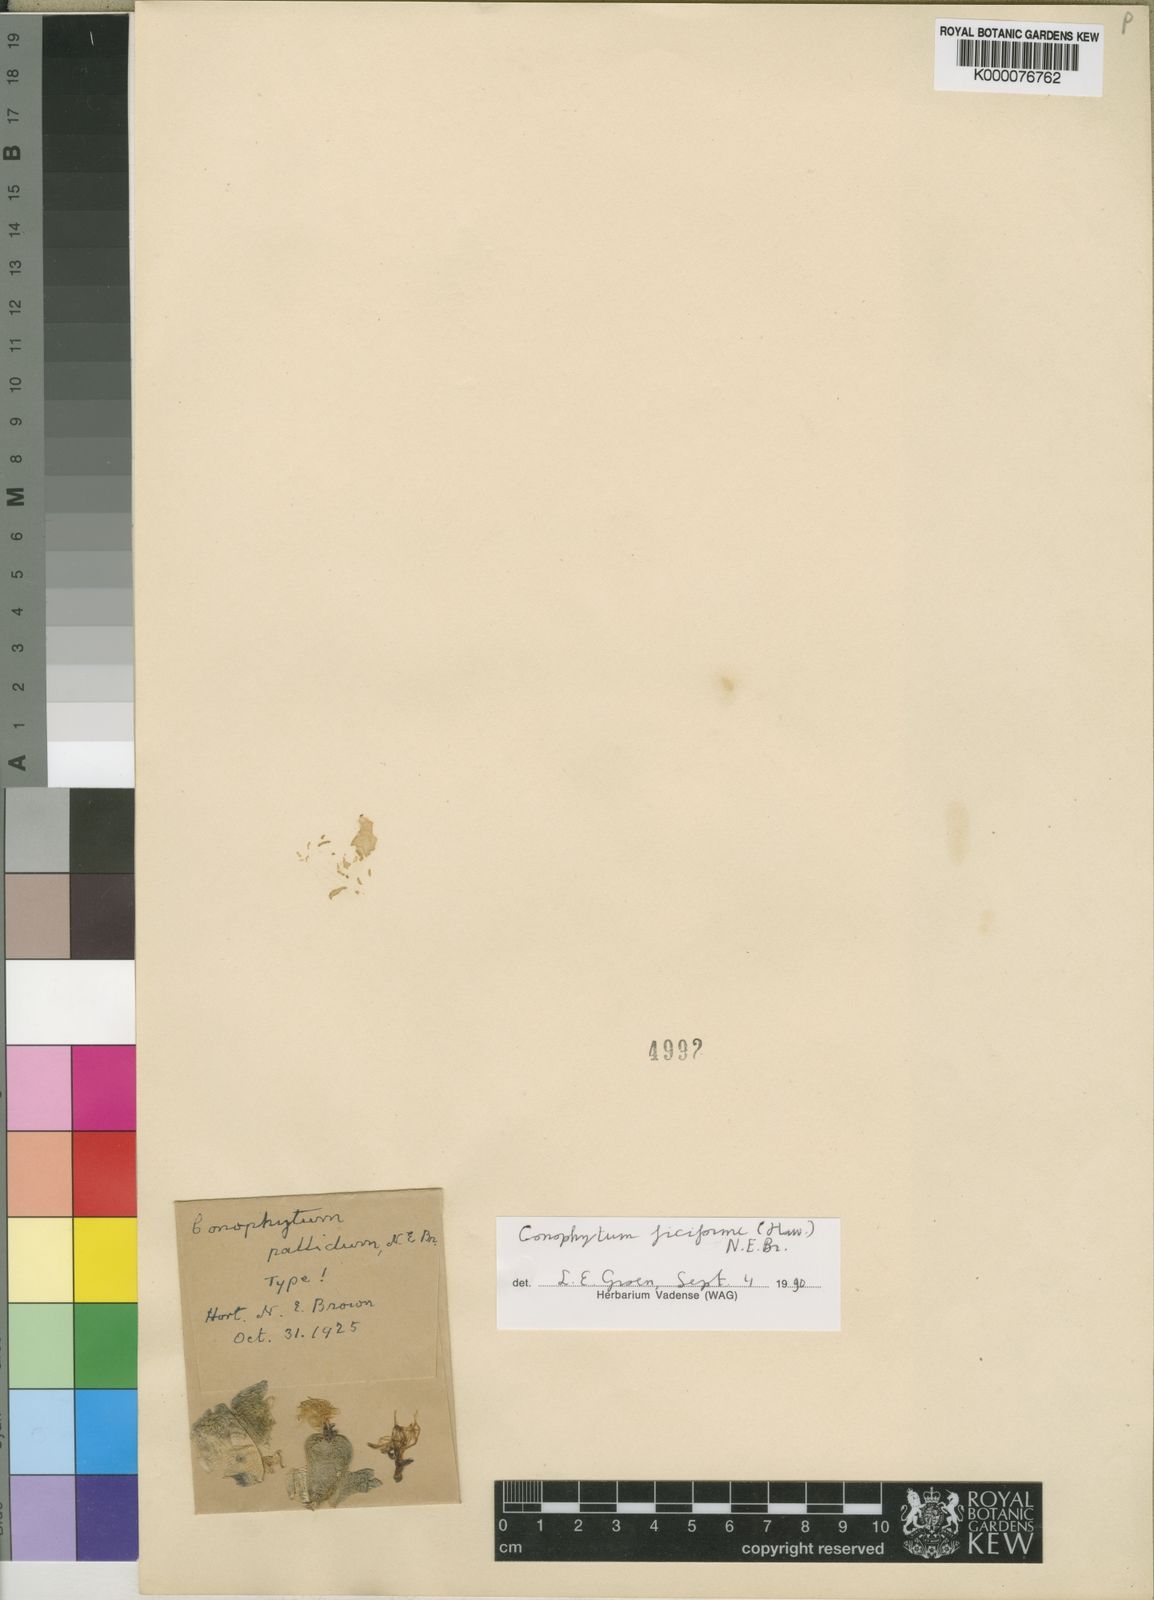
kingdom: Plantae
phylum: Tracheophyta
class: Magnoliopsida
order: Caryophyllales
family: Aizoaceae
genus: Conophytum
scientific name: Conophytum ficiforme
